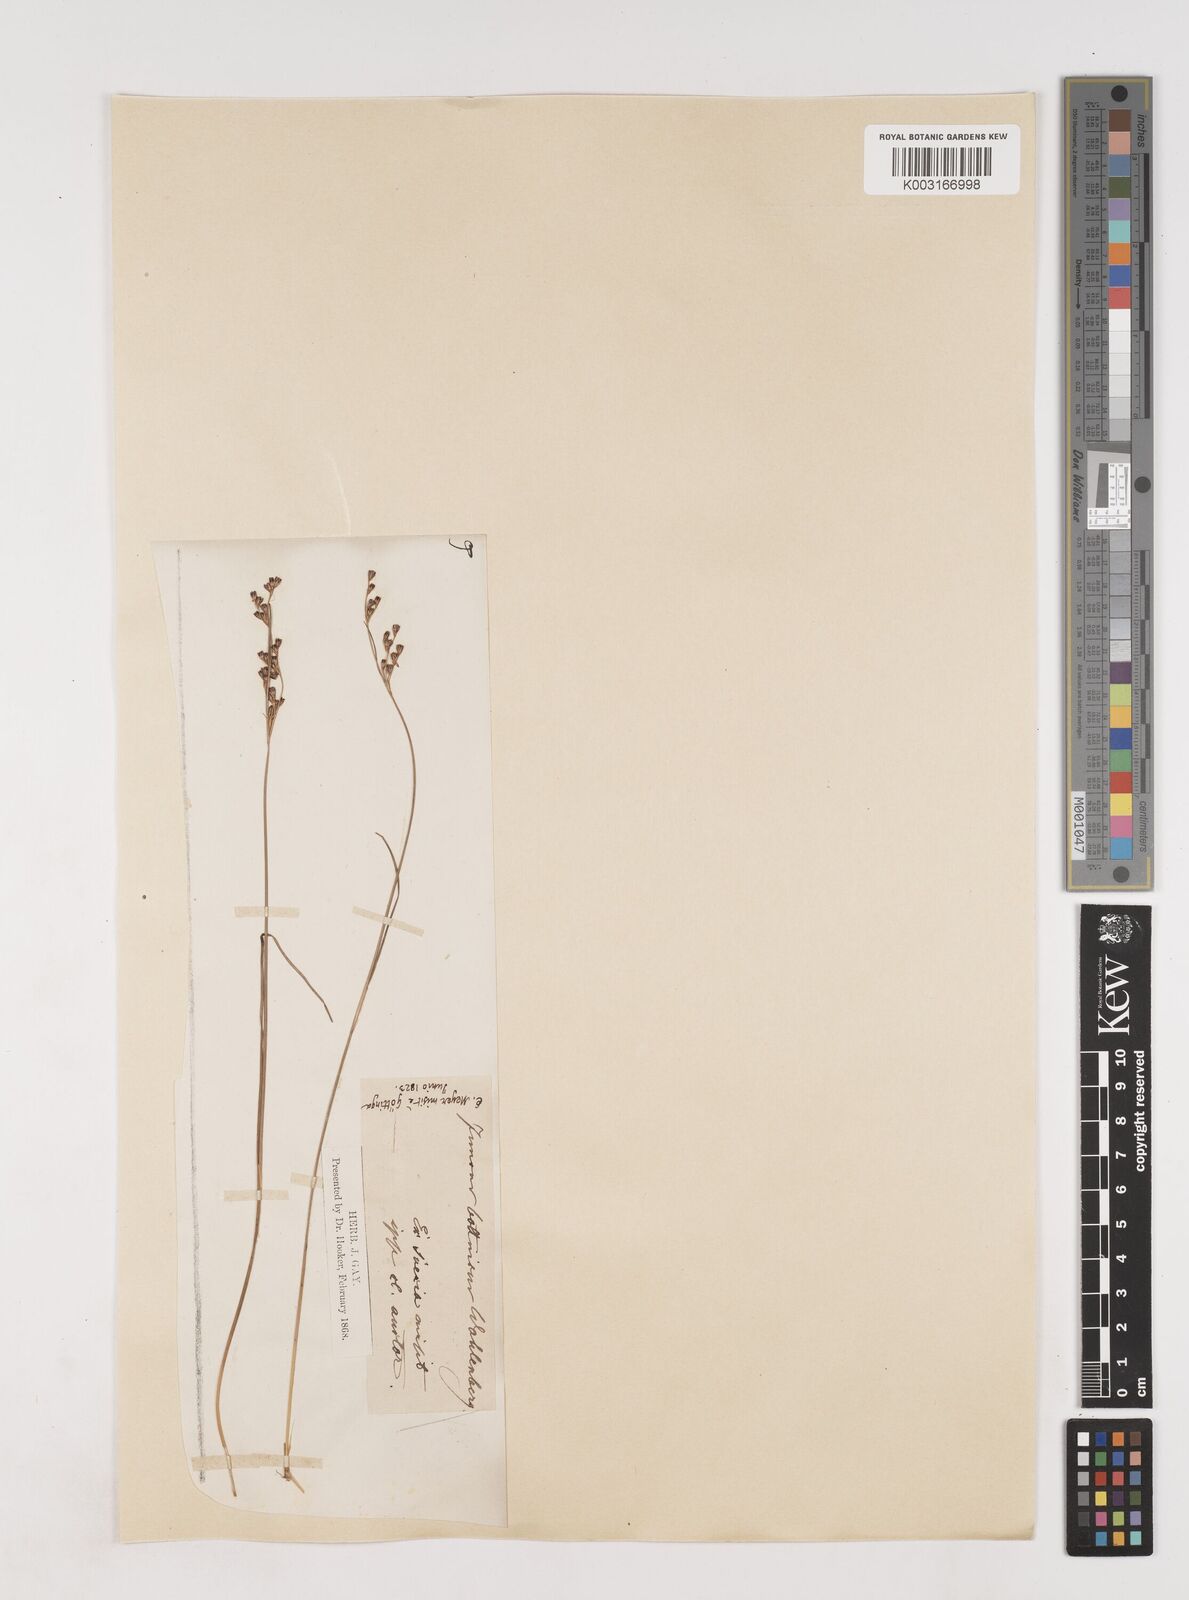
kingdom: Plantae
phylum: Tracheophyta
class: Liliopsida
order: Poales
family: Juncaceae
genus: Juncus
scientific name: Juncus gerardi
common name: Saltmarsh rush
